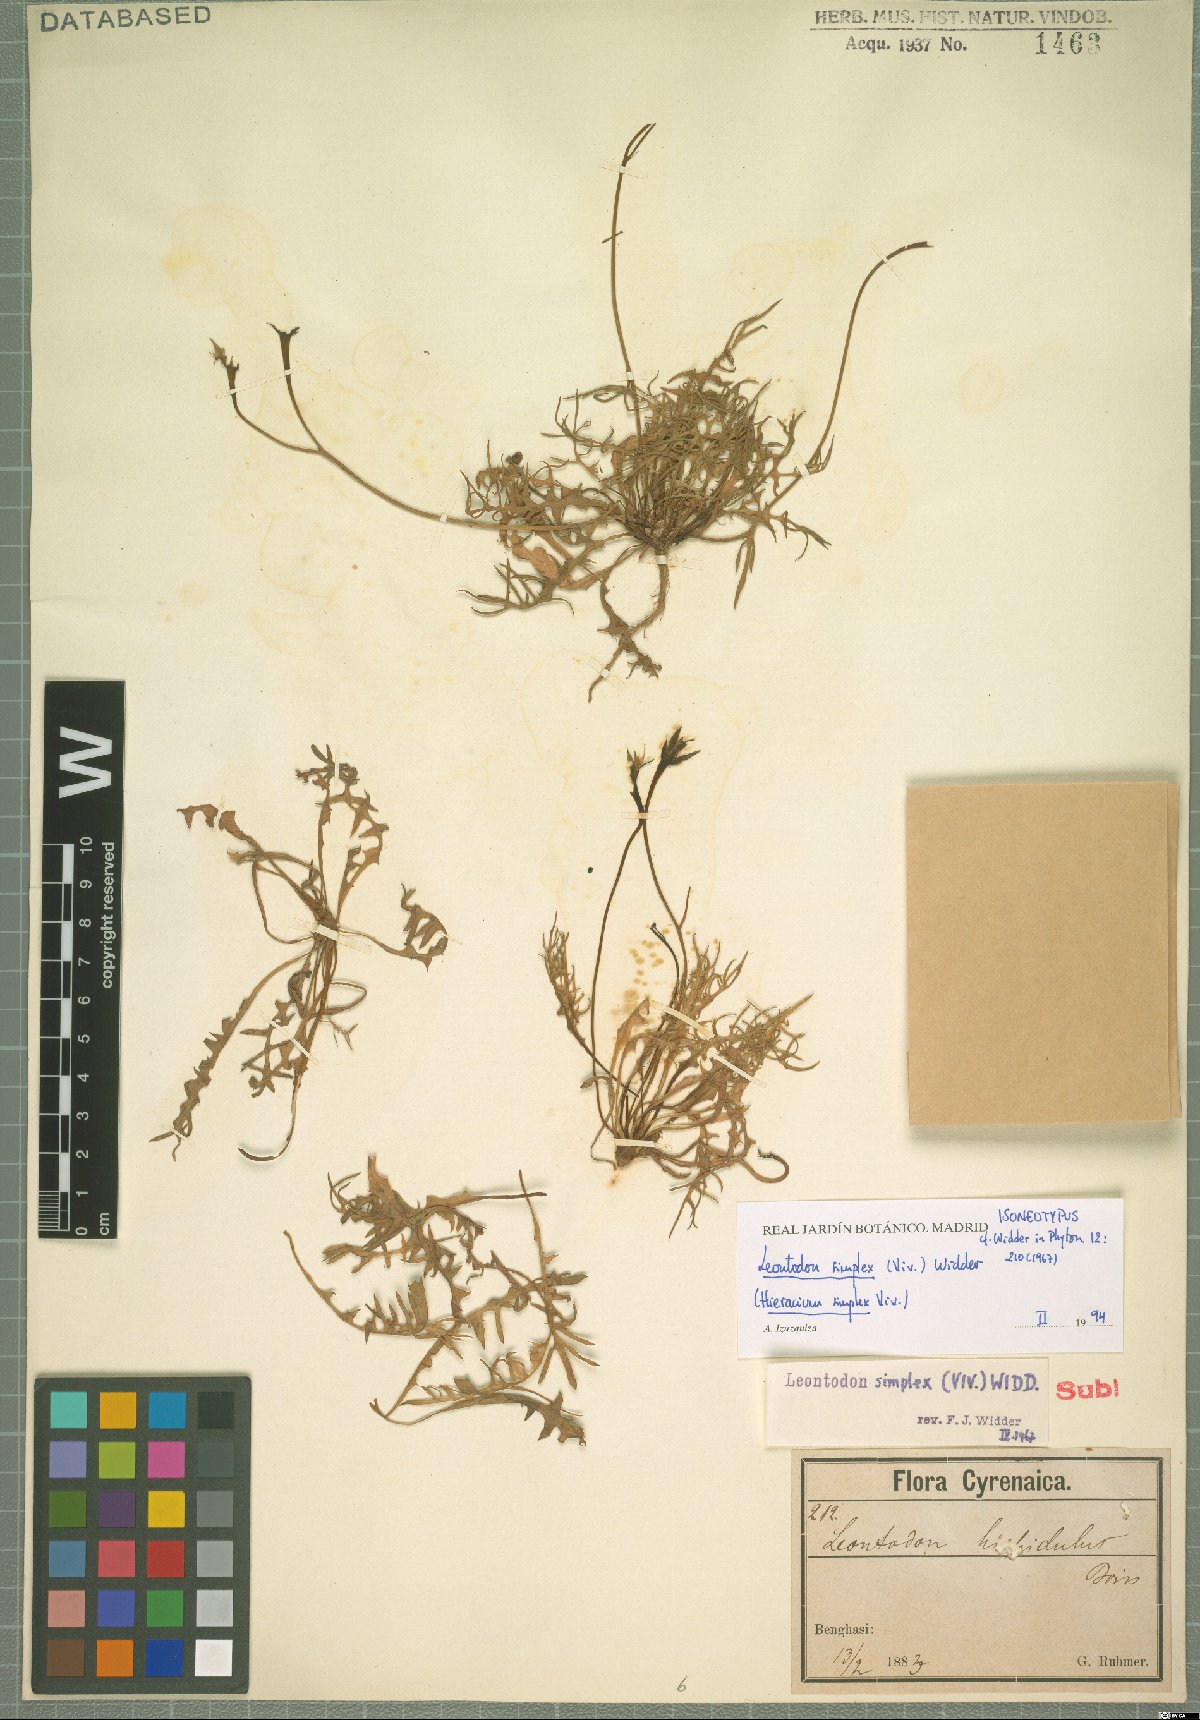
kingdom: Plantae
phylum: Tracheophyta
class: Magnoliopsida
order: Asterales
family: Asteraceae
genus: Scorzoneroides
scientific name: Scorzoneroides simplex
